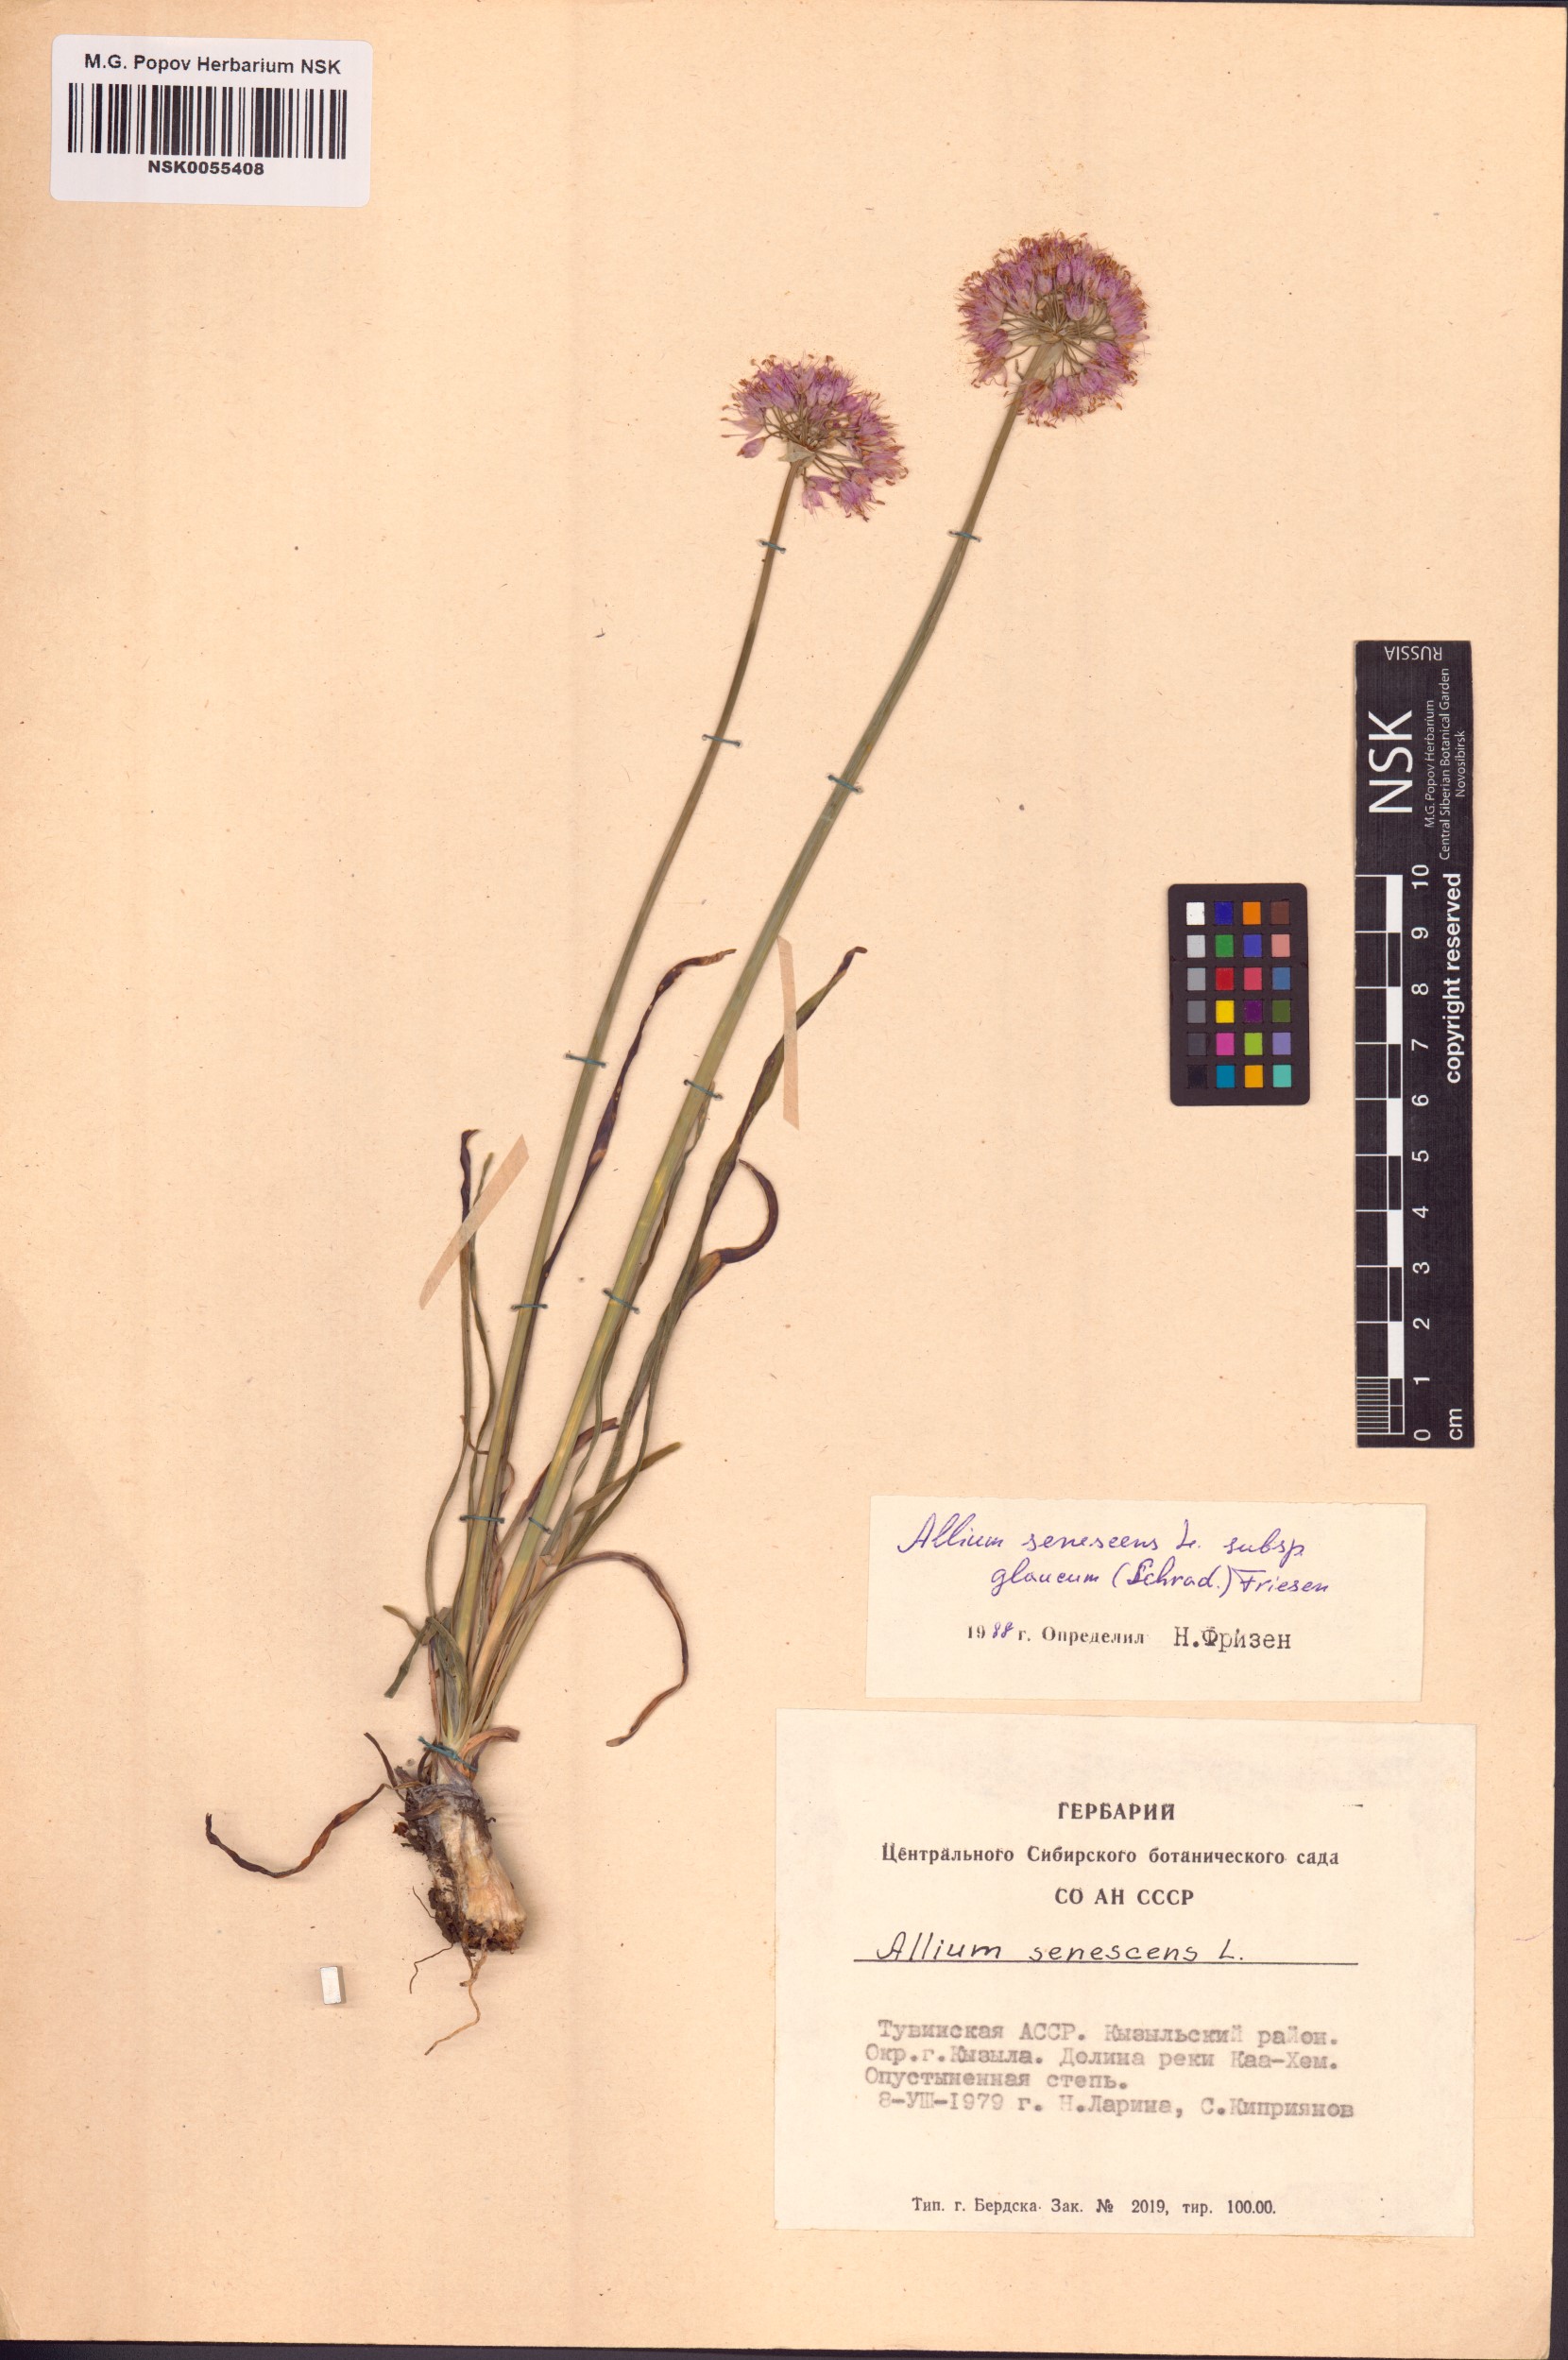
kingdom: Plantae
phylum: Tracheophyta
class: Liliopsida
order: Asparagales
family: Amaryllidaceae
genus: Allium
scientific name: Allium senescens
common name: German garlic
